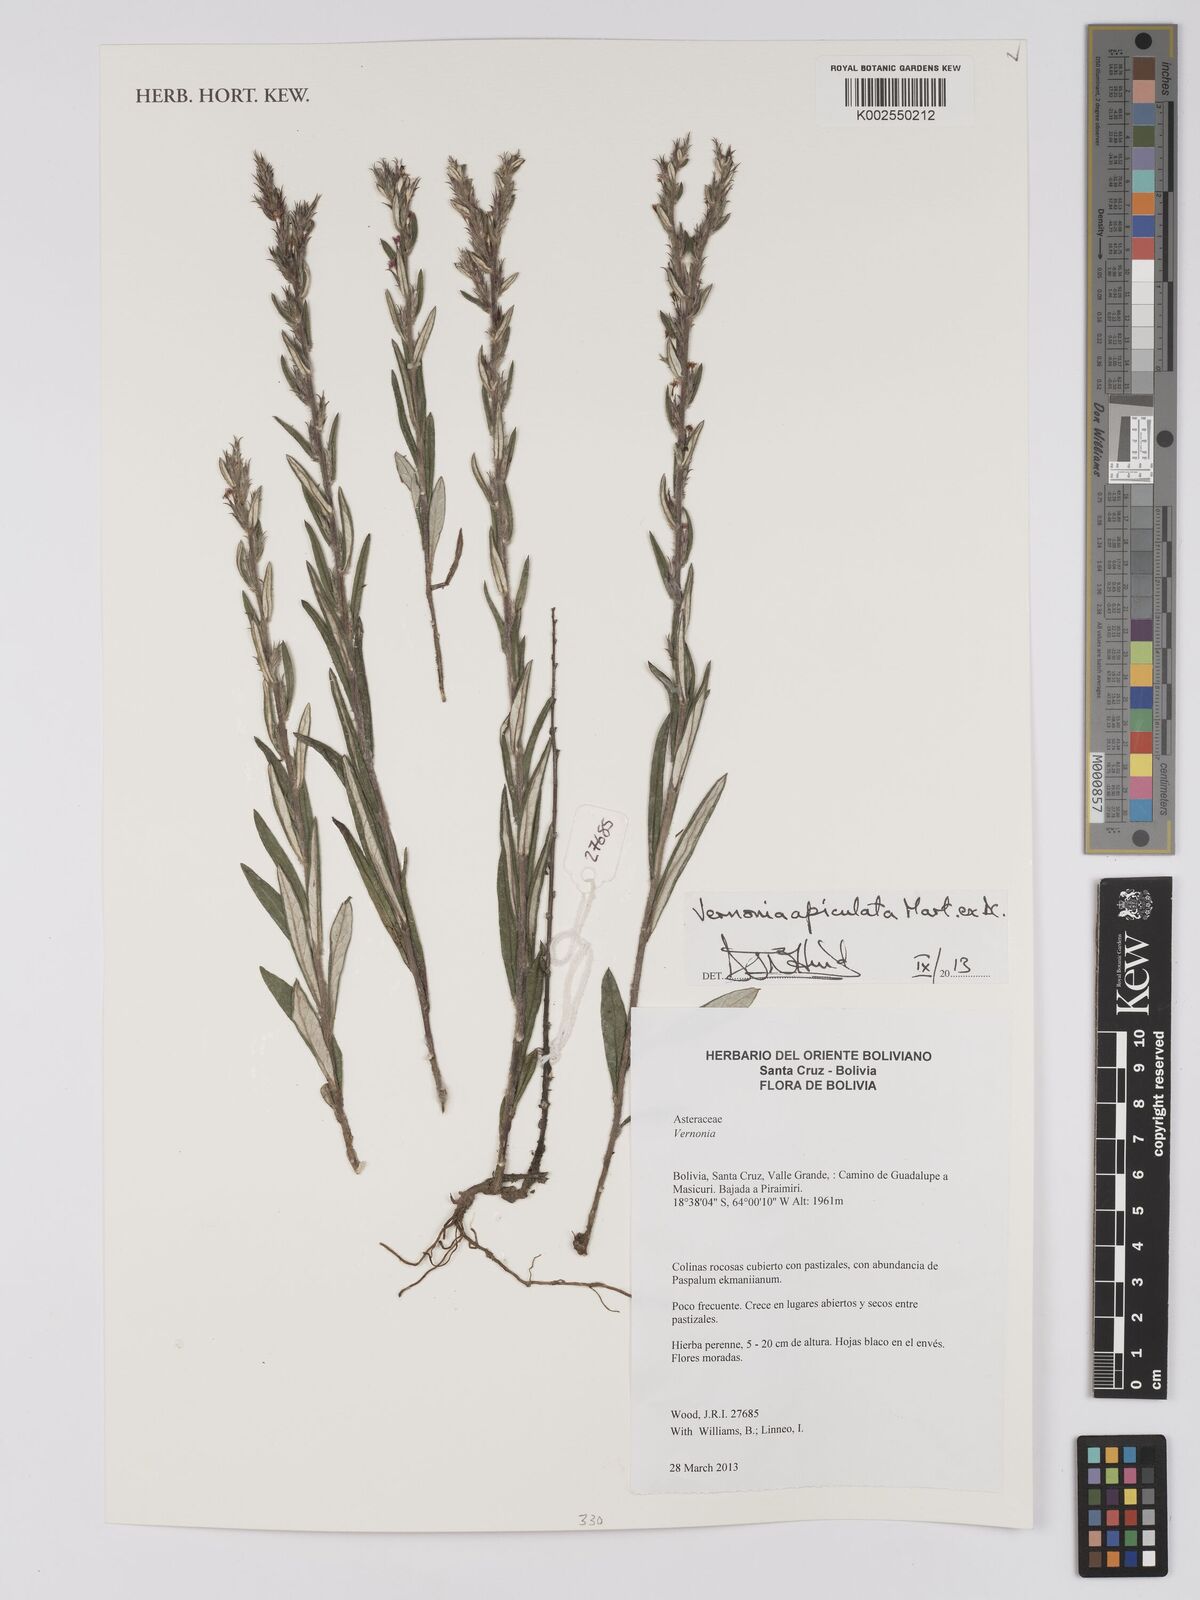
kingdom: Plantae
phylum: Tracheophyta
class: Magnoliopsida
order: Asterales
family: Asteraceae
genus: Stenocephalum
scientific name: Stenocephalum apiculatum
